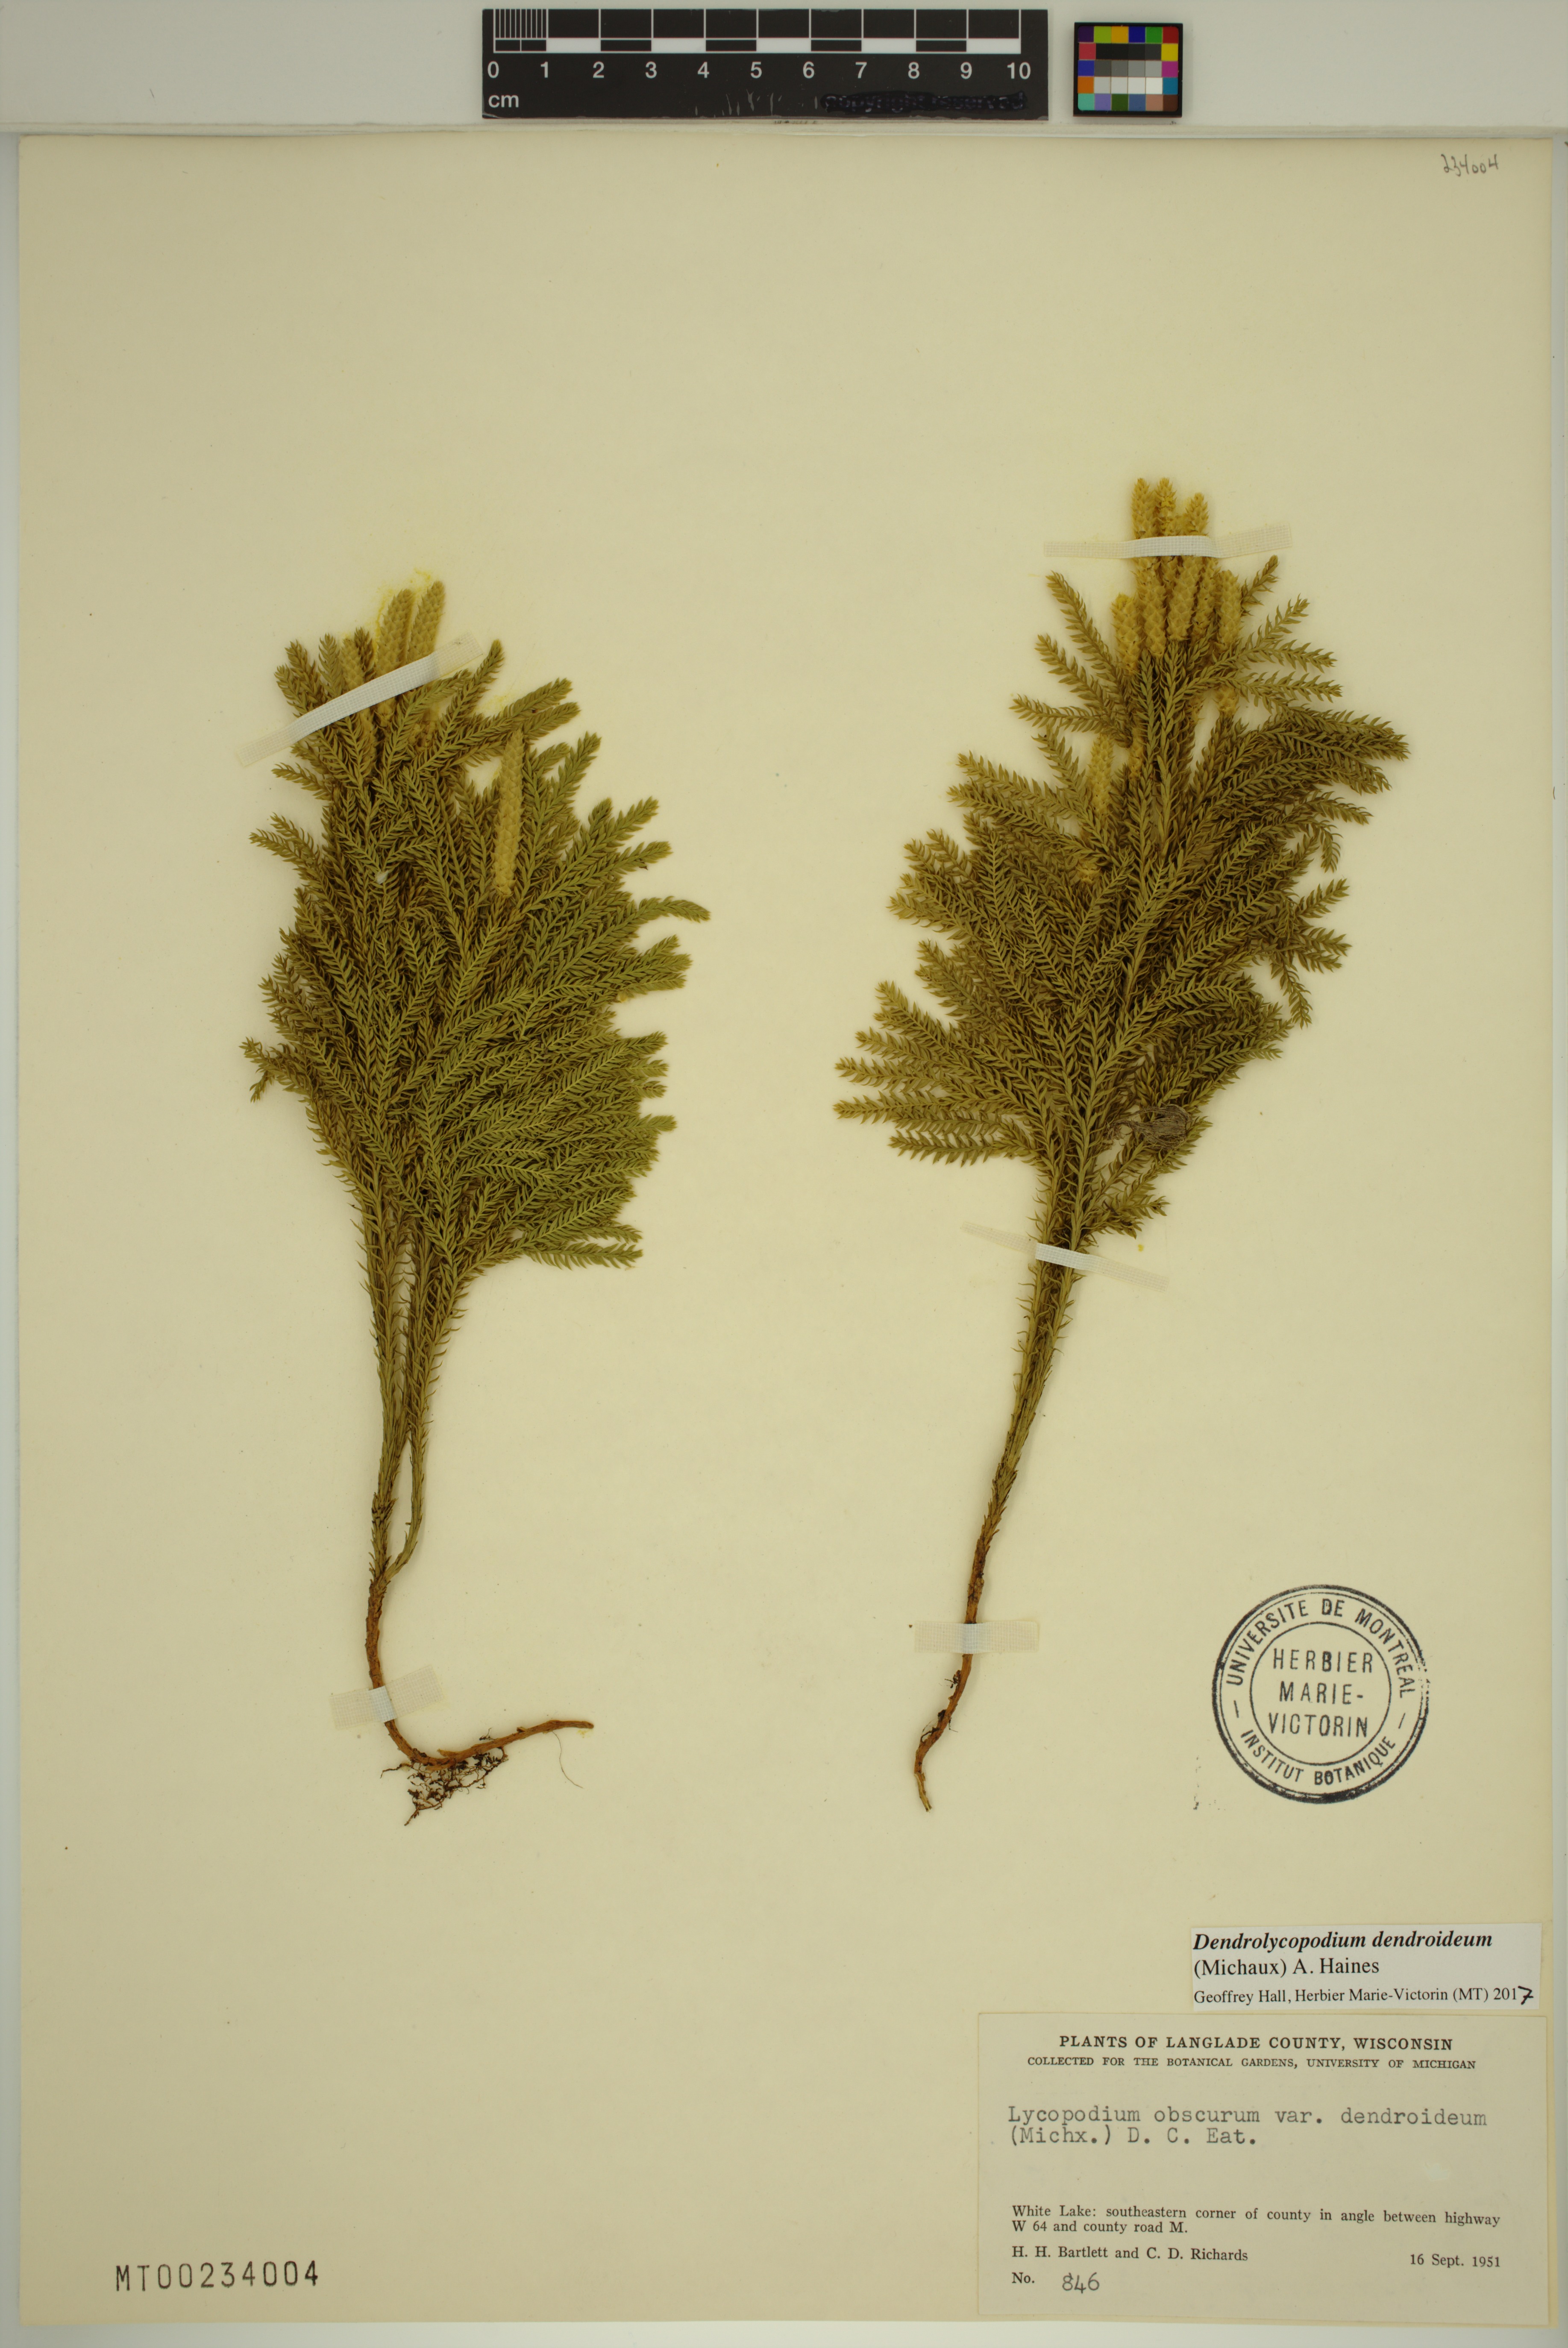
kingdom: Plantae
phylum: Tracheophyta
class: Lycopodiopsida
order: Lycopodiales
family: Lycopodiaceae
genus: Dendrolycopodium
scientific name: Dendrolycopodium dendroideum
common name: Northern tree-clubmoss
